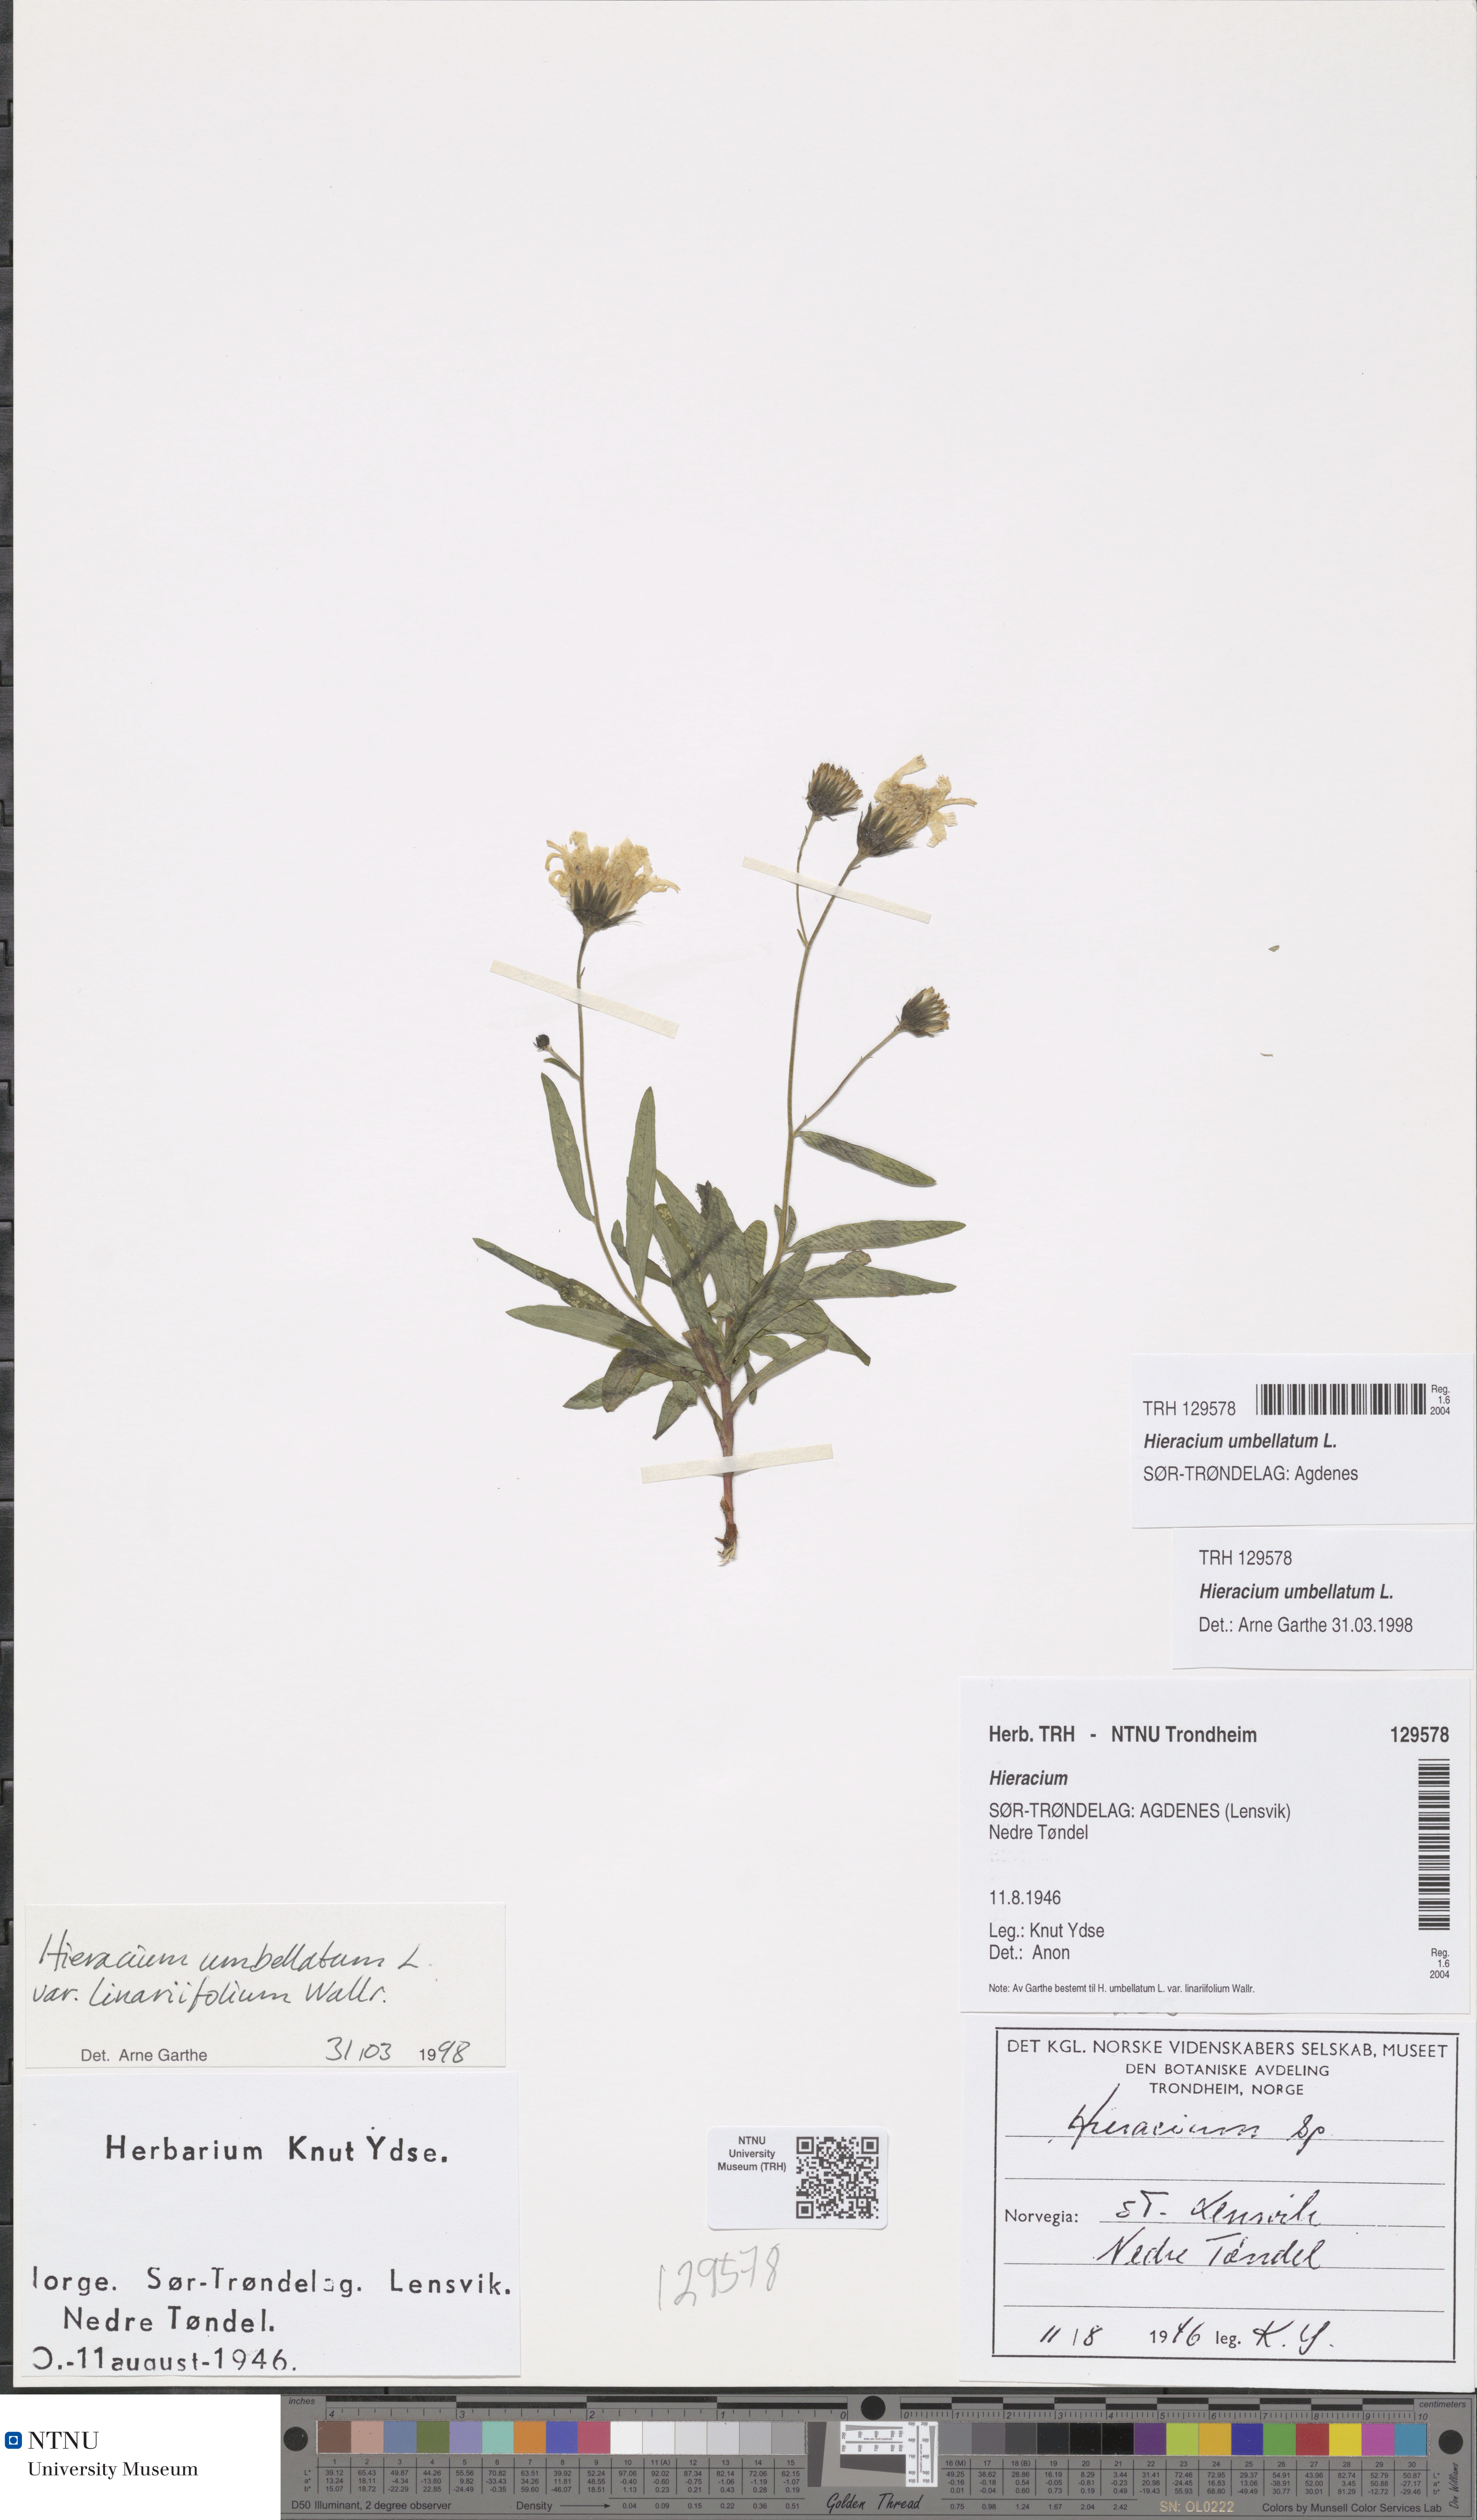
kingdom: Plantae
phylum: Tracheophyta
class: Magnoliopsida
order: Asterales
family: Asteraceae
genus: Hieracium
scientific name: Hieracium umbellatum
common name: Northern hawkweed
